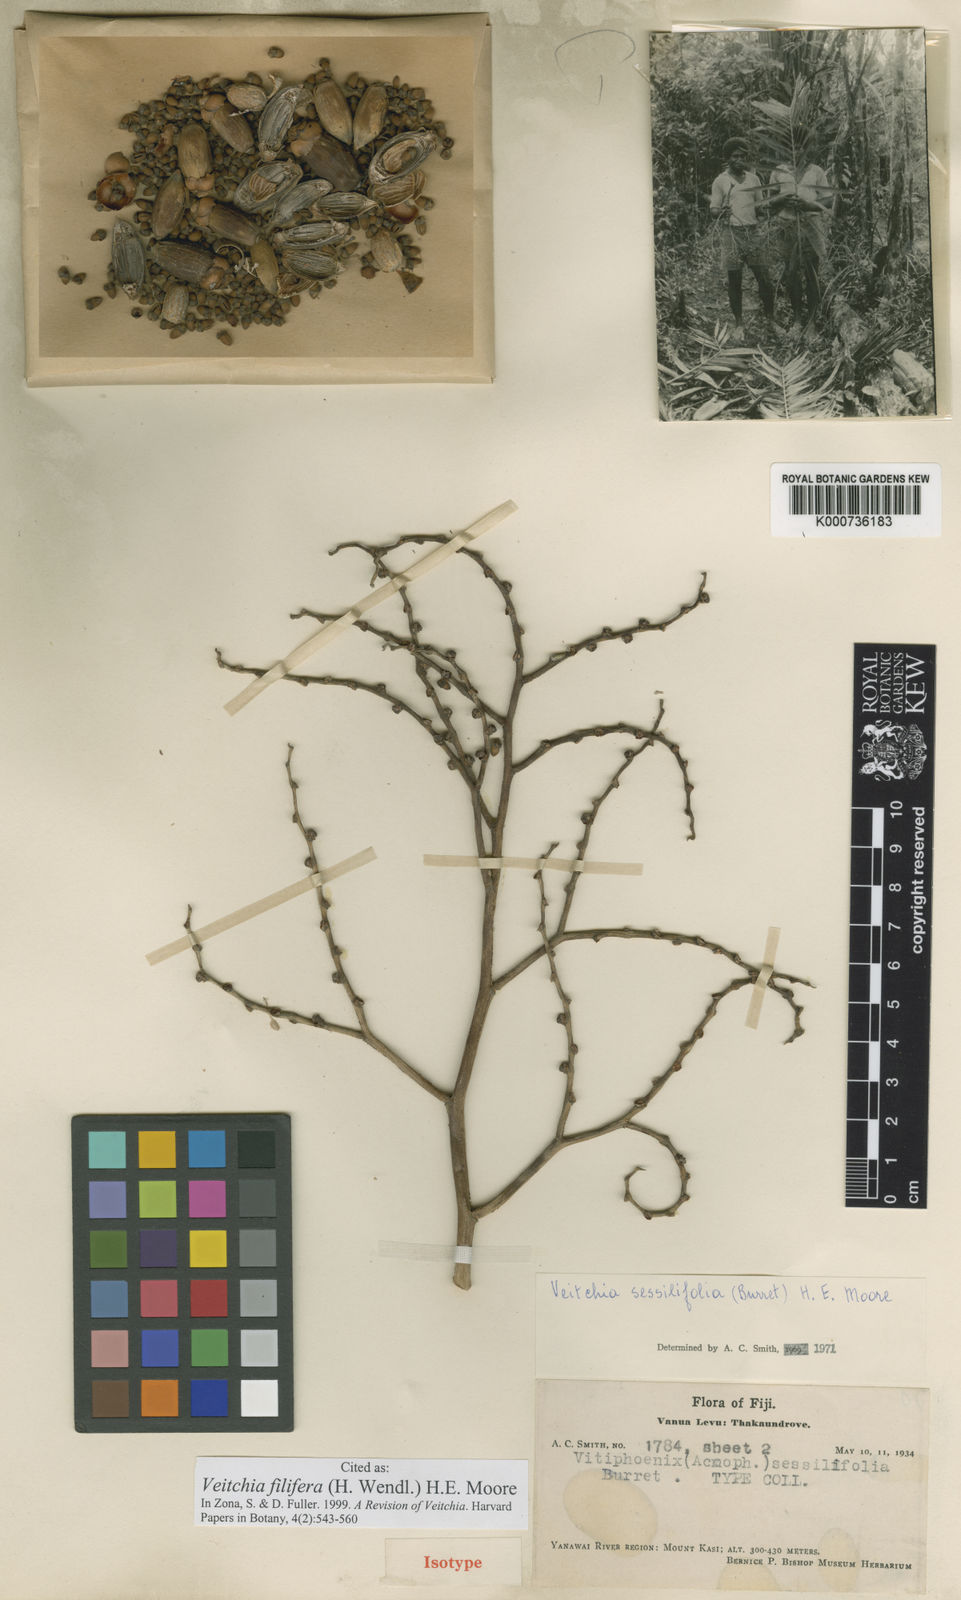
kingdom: Plantae
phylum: Tracheophyta
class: Liliopsida
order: Arecales
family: Arecaceae
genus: Veitchia
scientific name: Veitchia filifera
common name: Cagicake
